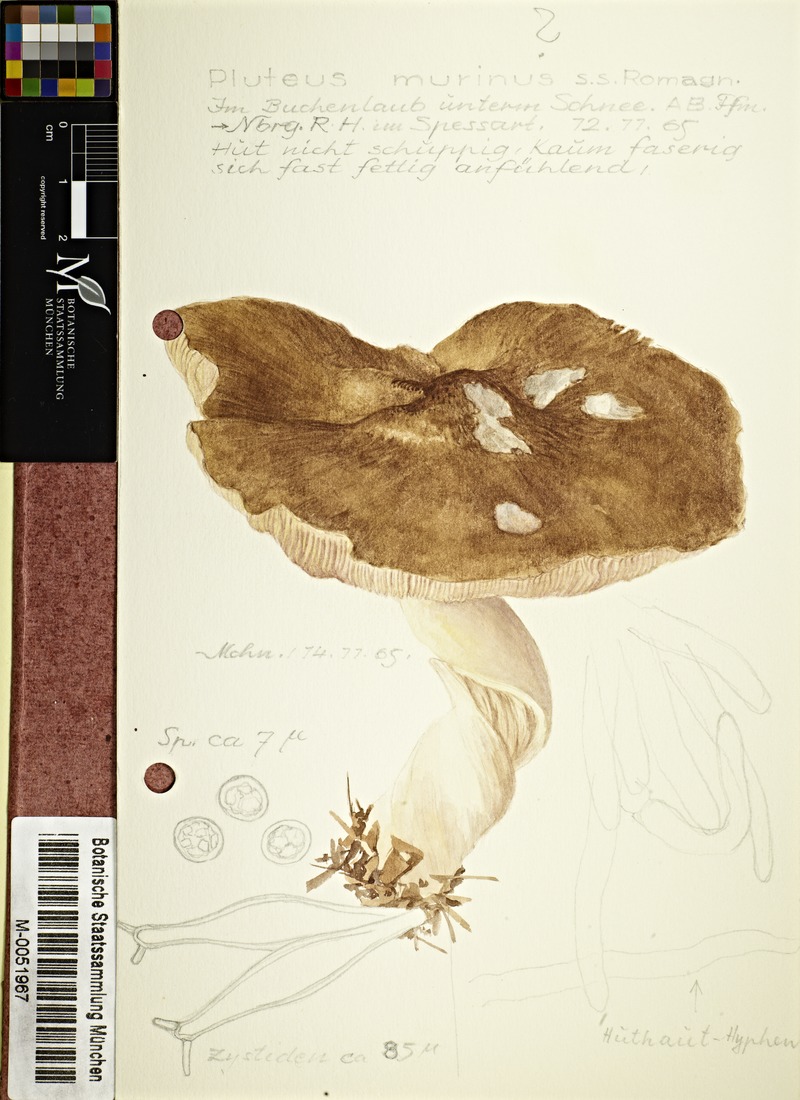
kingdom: Fungi
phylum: Basidiomycota
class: Agaricomycetes
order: Agaricales
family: Pluteaceae
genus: Pluteus
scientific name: Pluteus ephebeus
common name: Sooty shield
